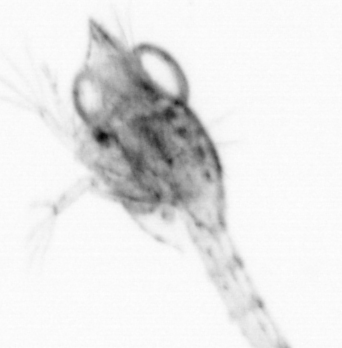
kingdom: Animalia
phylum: Arthropoda
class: Copepoda
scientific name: Copepoda
